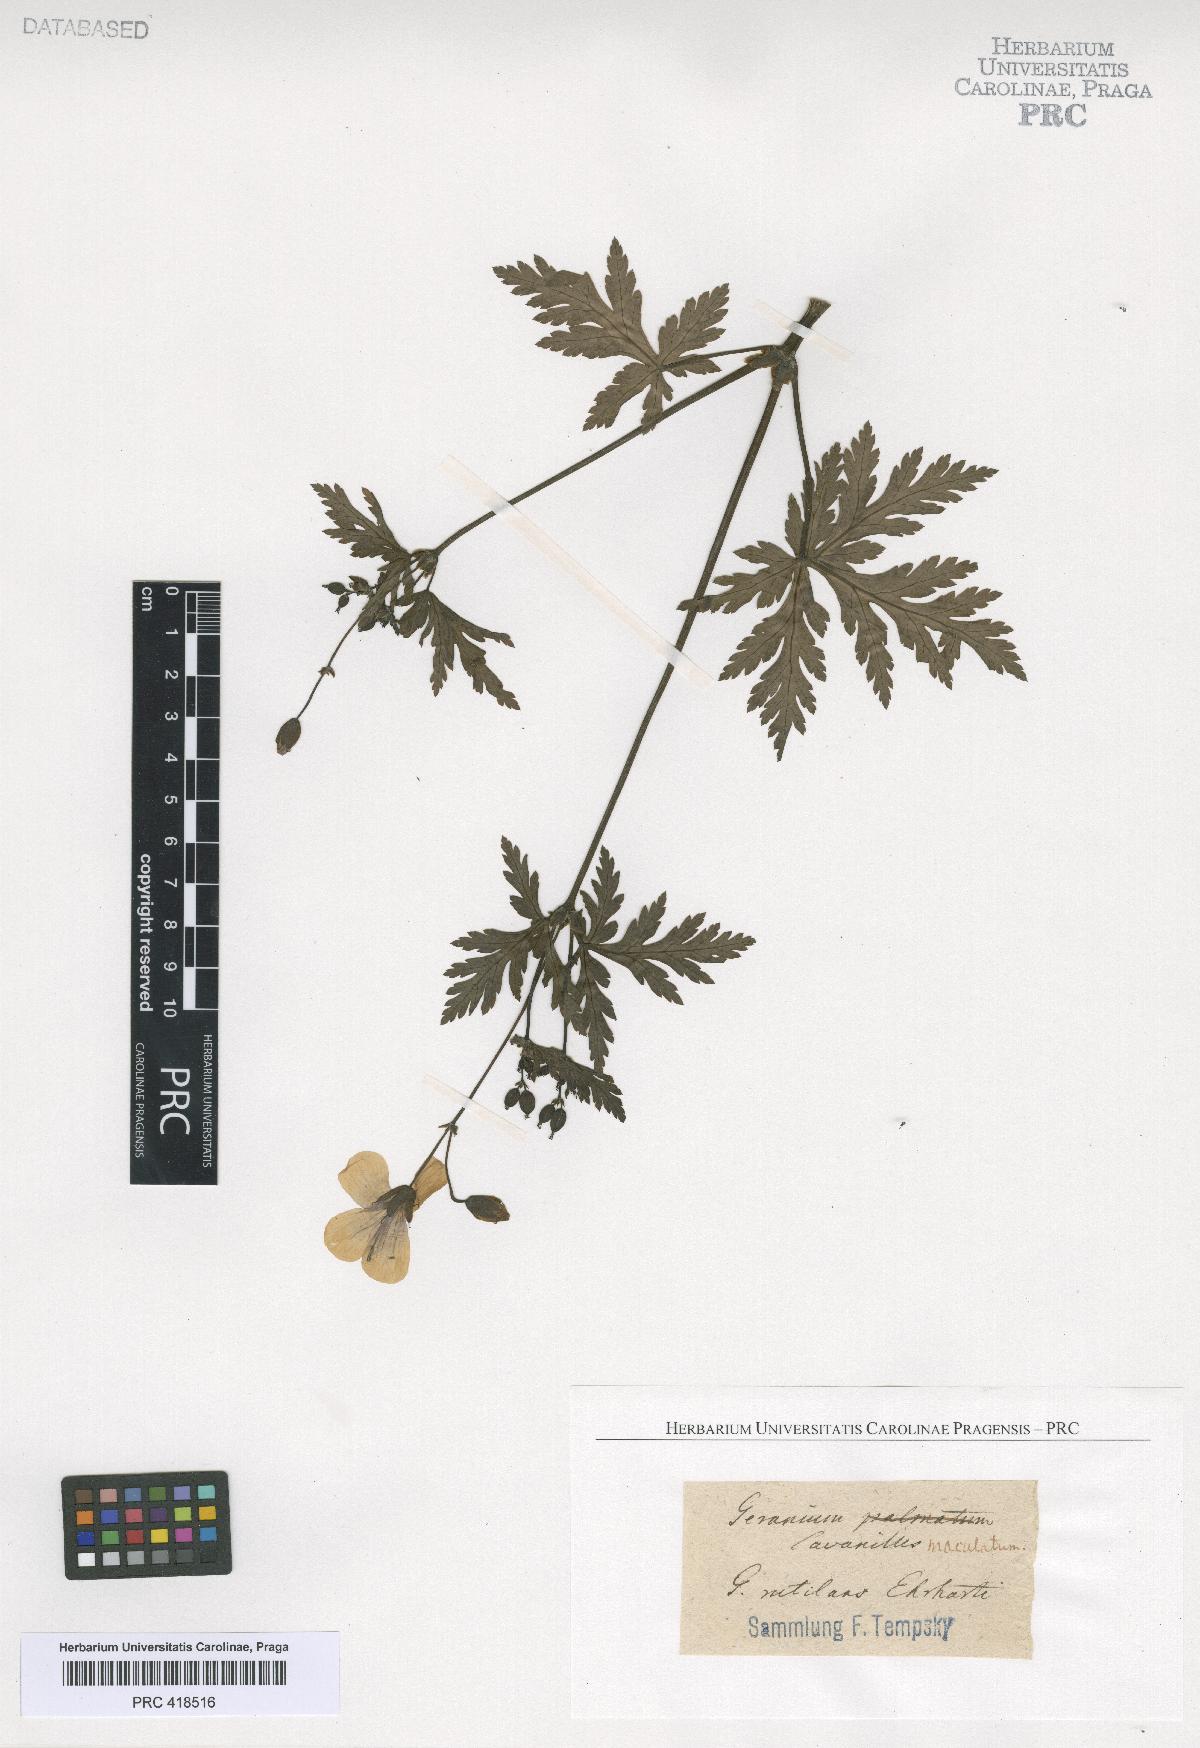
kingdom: Plantae
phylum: Tracheophyta
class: Magnoliopsida
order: Geraniales
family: Geraniaceae
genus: Geranium
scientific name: Geranium reuteri
